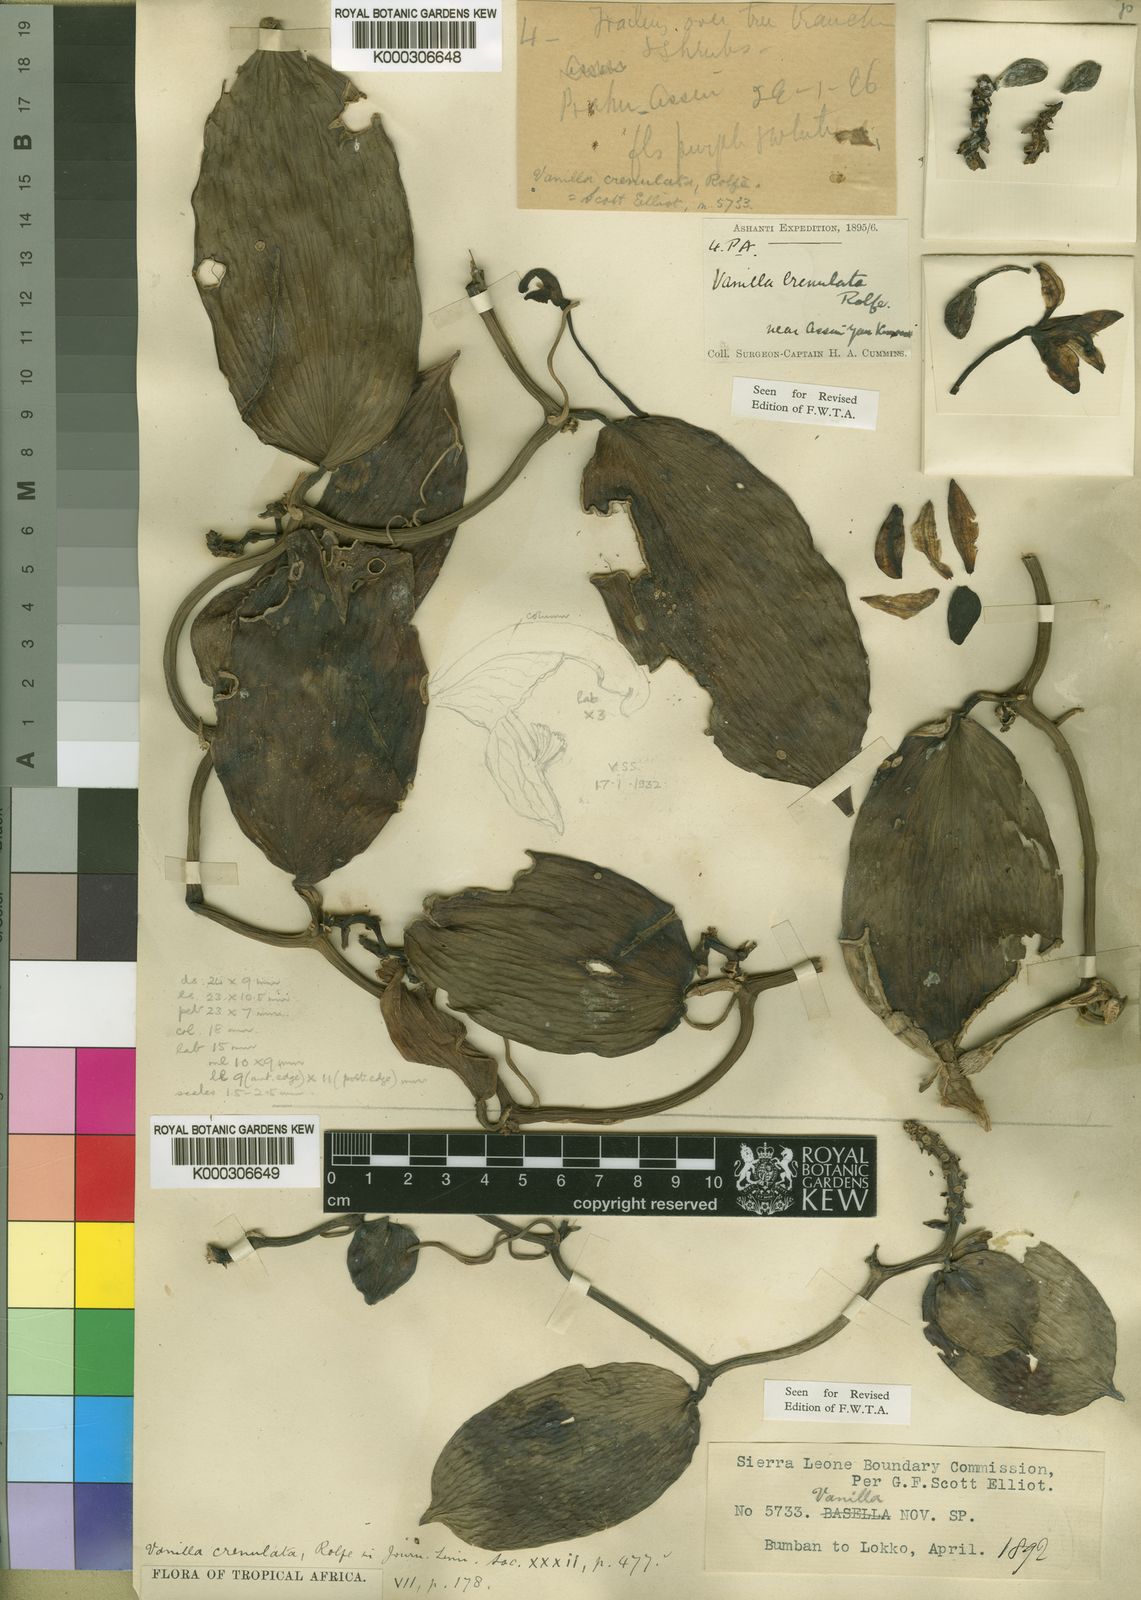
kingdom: Plantae
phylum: Tracheophyta
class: Liliopsida
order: Asparagales
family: Orchidaceae
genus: Vanilla
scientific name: Vanilla crenulata
